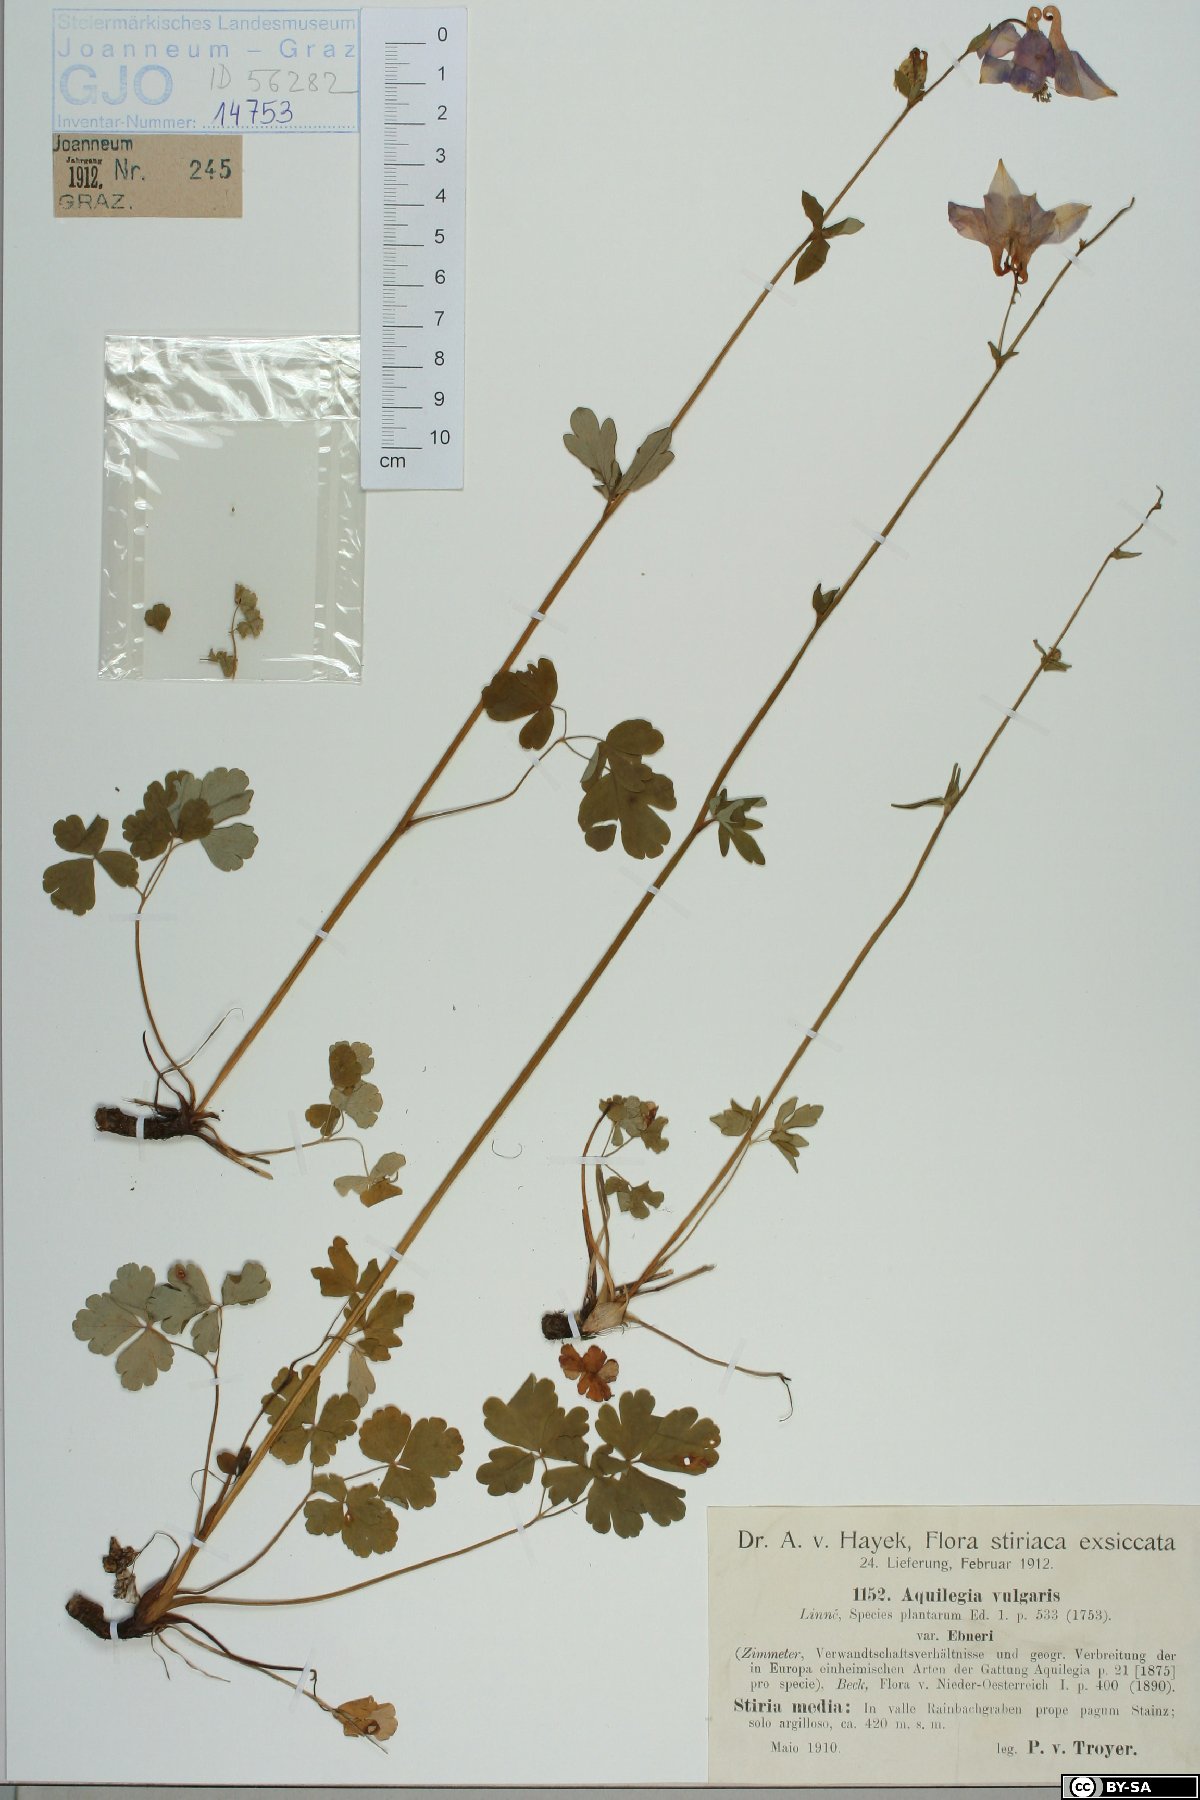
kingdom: Plantae
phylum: Tracheophyta
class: Magnoliopsida
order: Ranunculales
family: Ranunculaceae
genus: Aquilegia
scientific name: Aquilegia vulgaris
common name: Columbine
